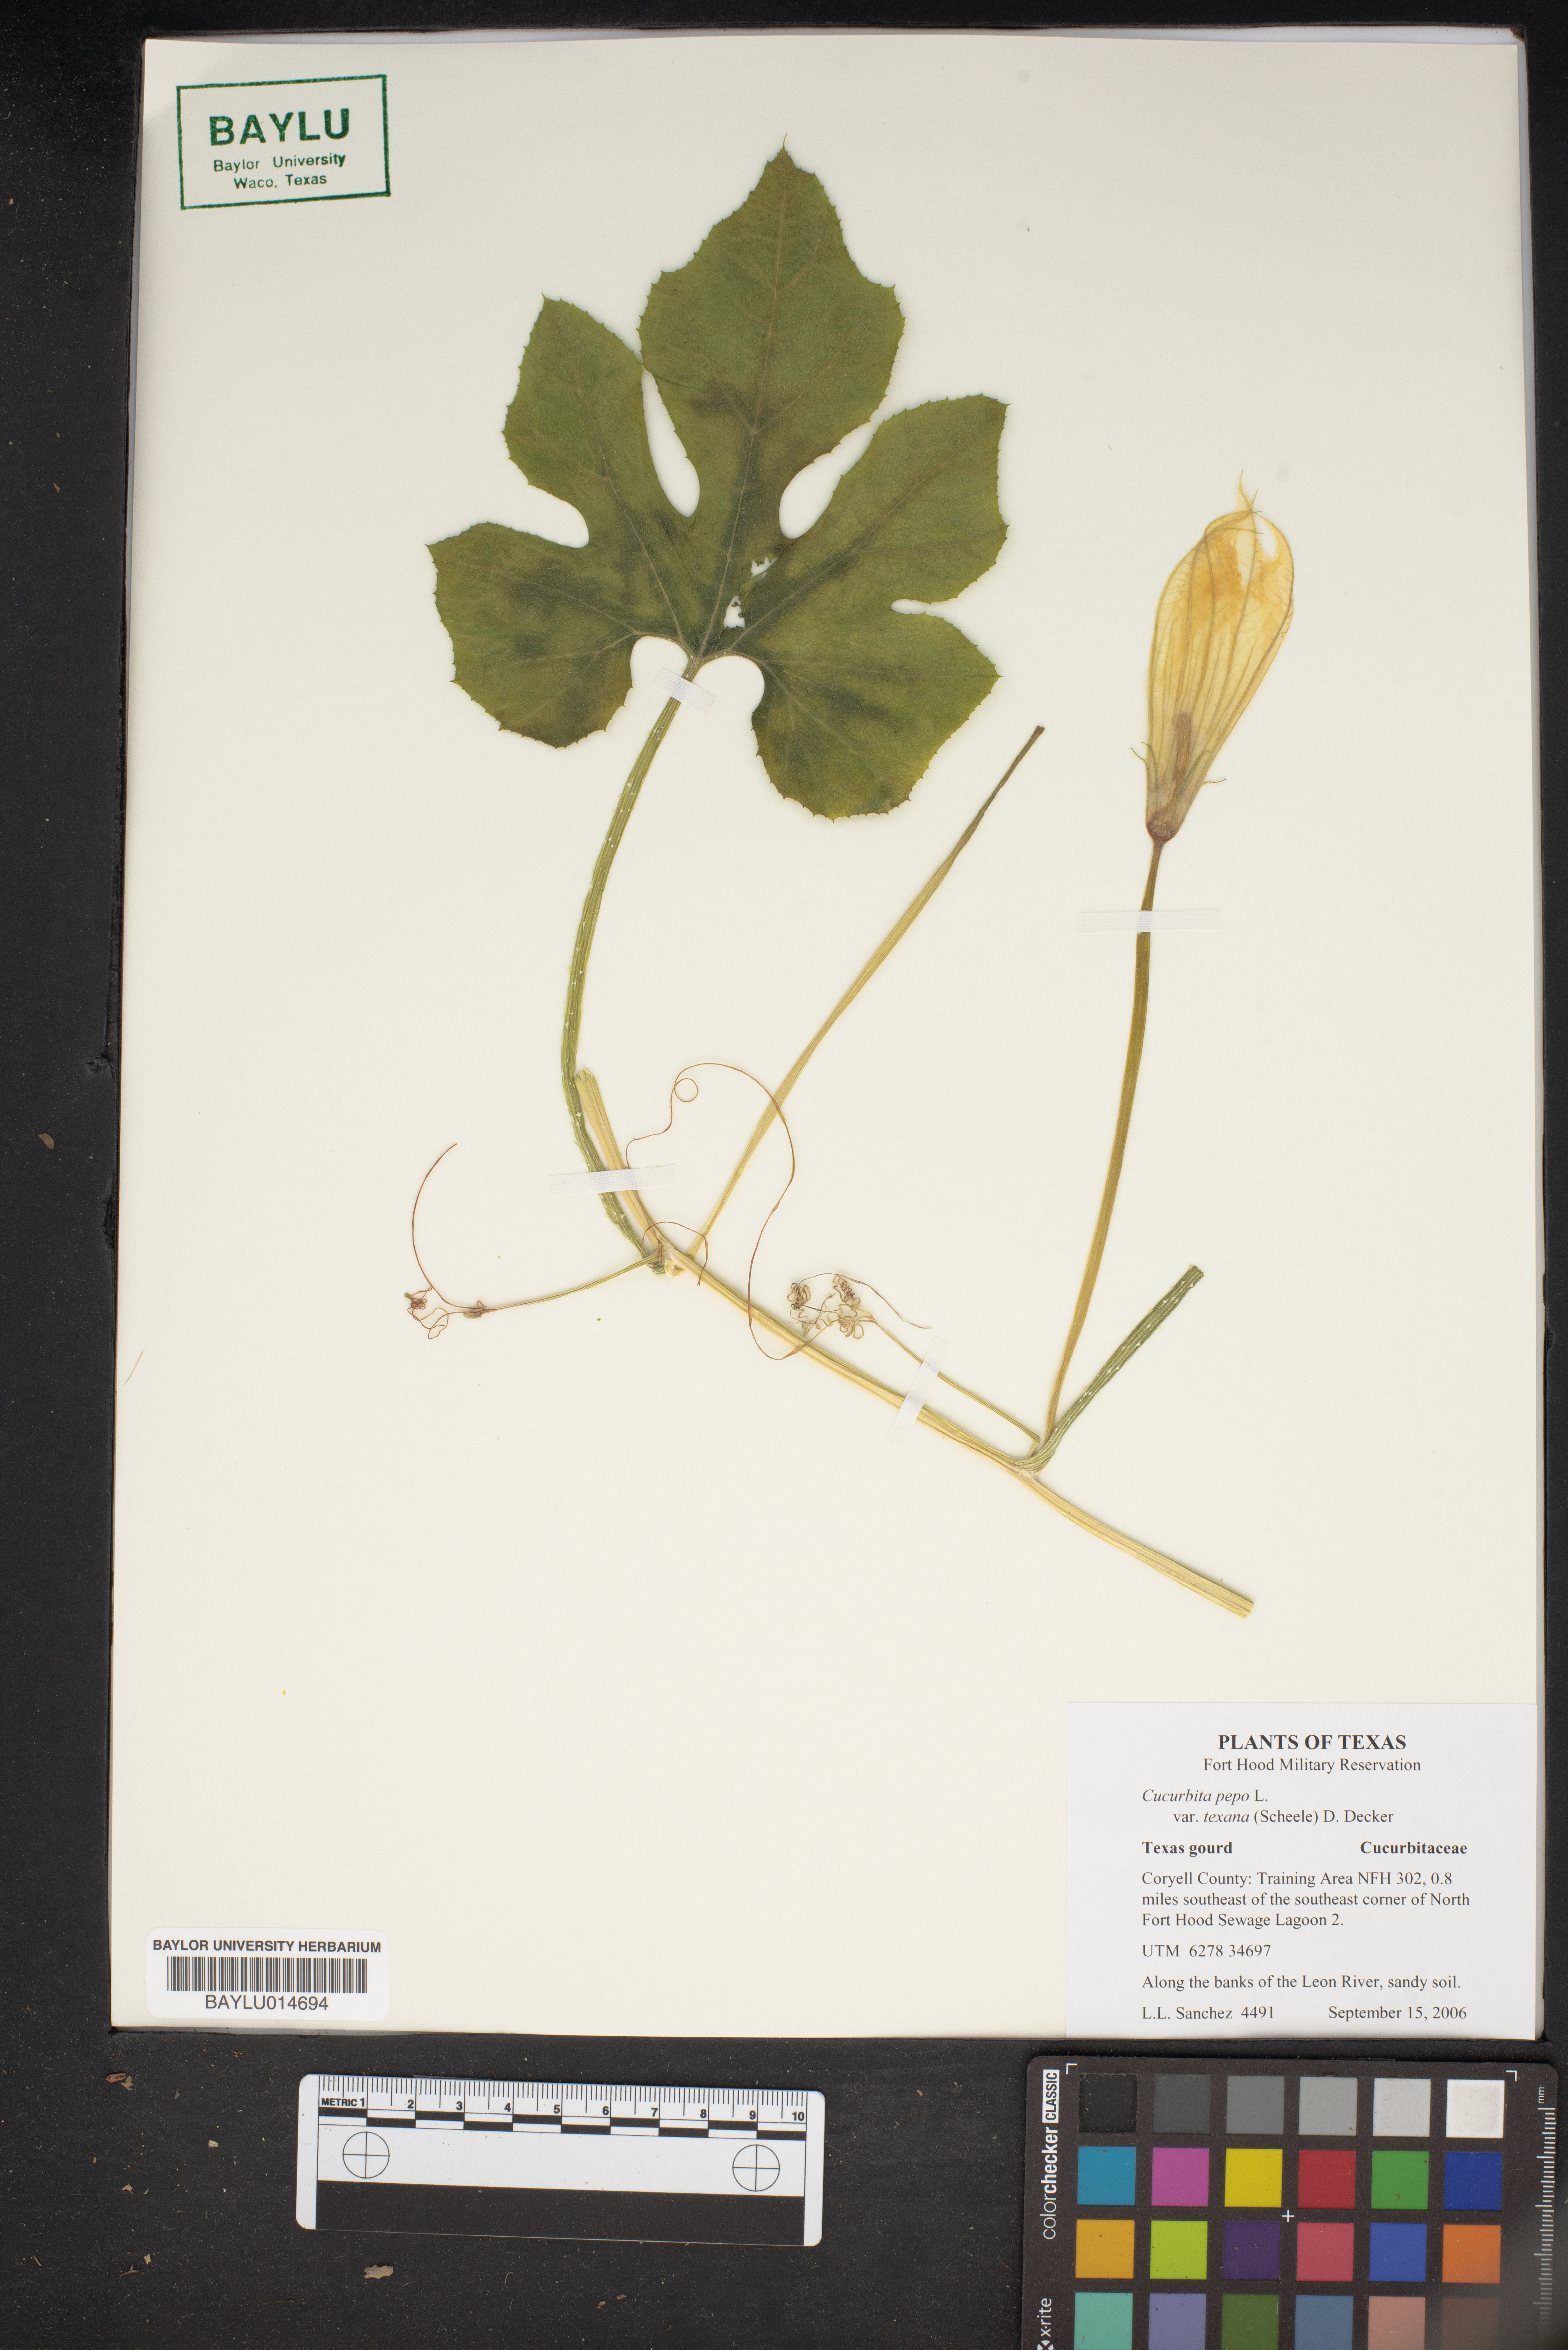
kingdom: Plantae
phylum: Tracheophyta
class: Magnoliopsida
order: Cucurbitales
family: Cucurbitaceae
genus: Cucurbita
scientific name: Cucurbita melopepo
